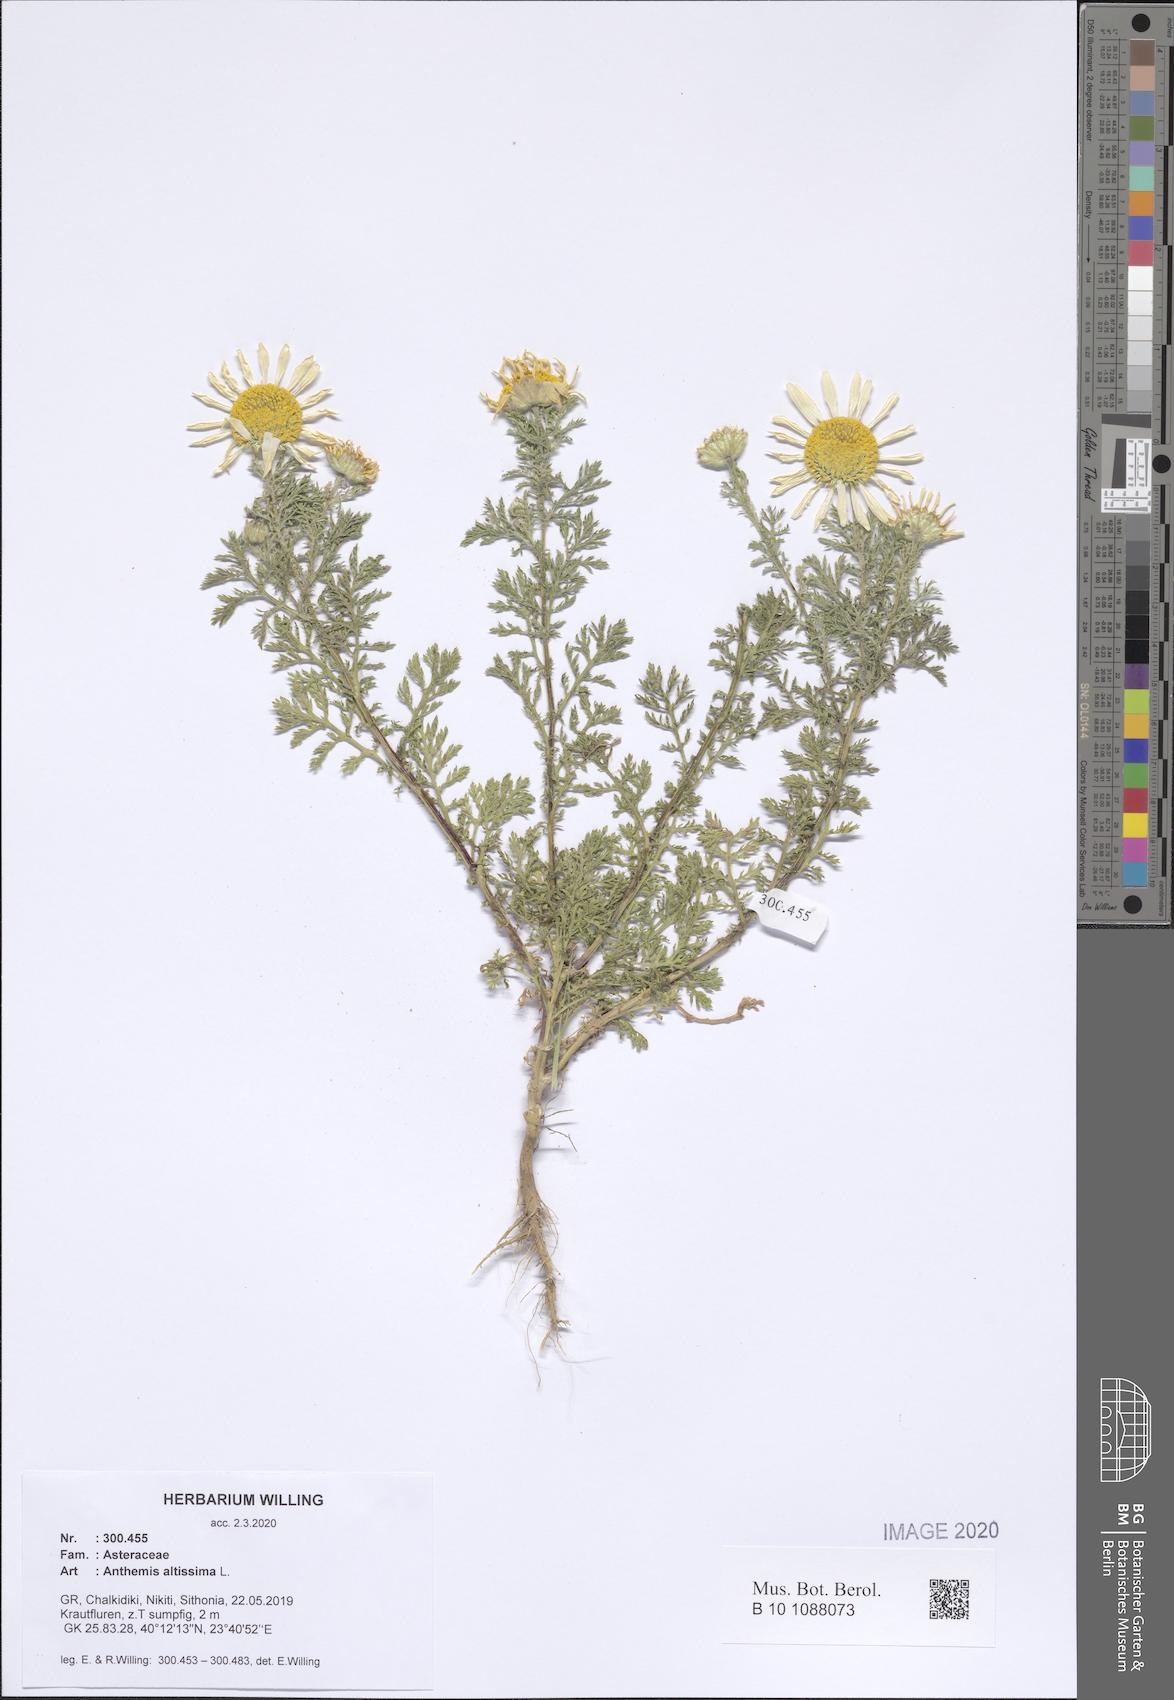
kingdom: Plantae
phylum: Tracheophyta
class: Magnoliopsida
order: Asterales
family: Asteraceae
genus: Cota
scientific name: Cota altissima
